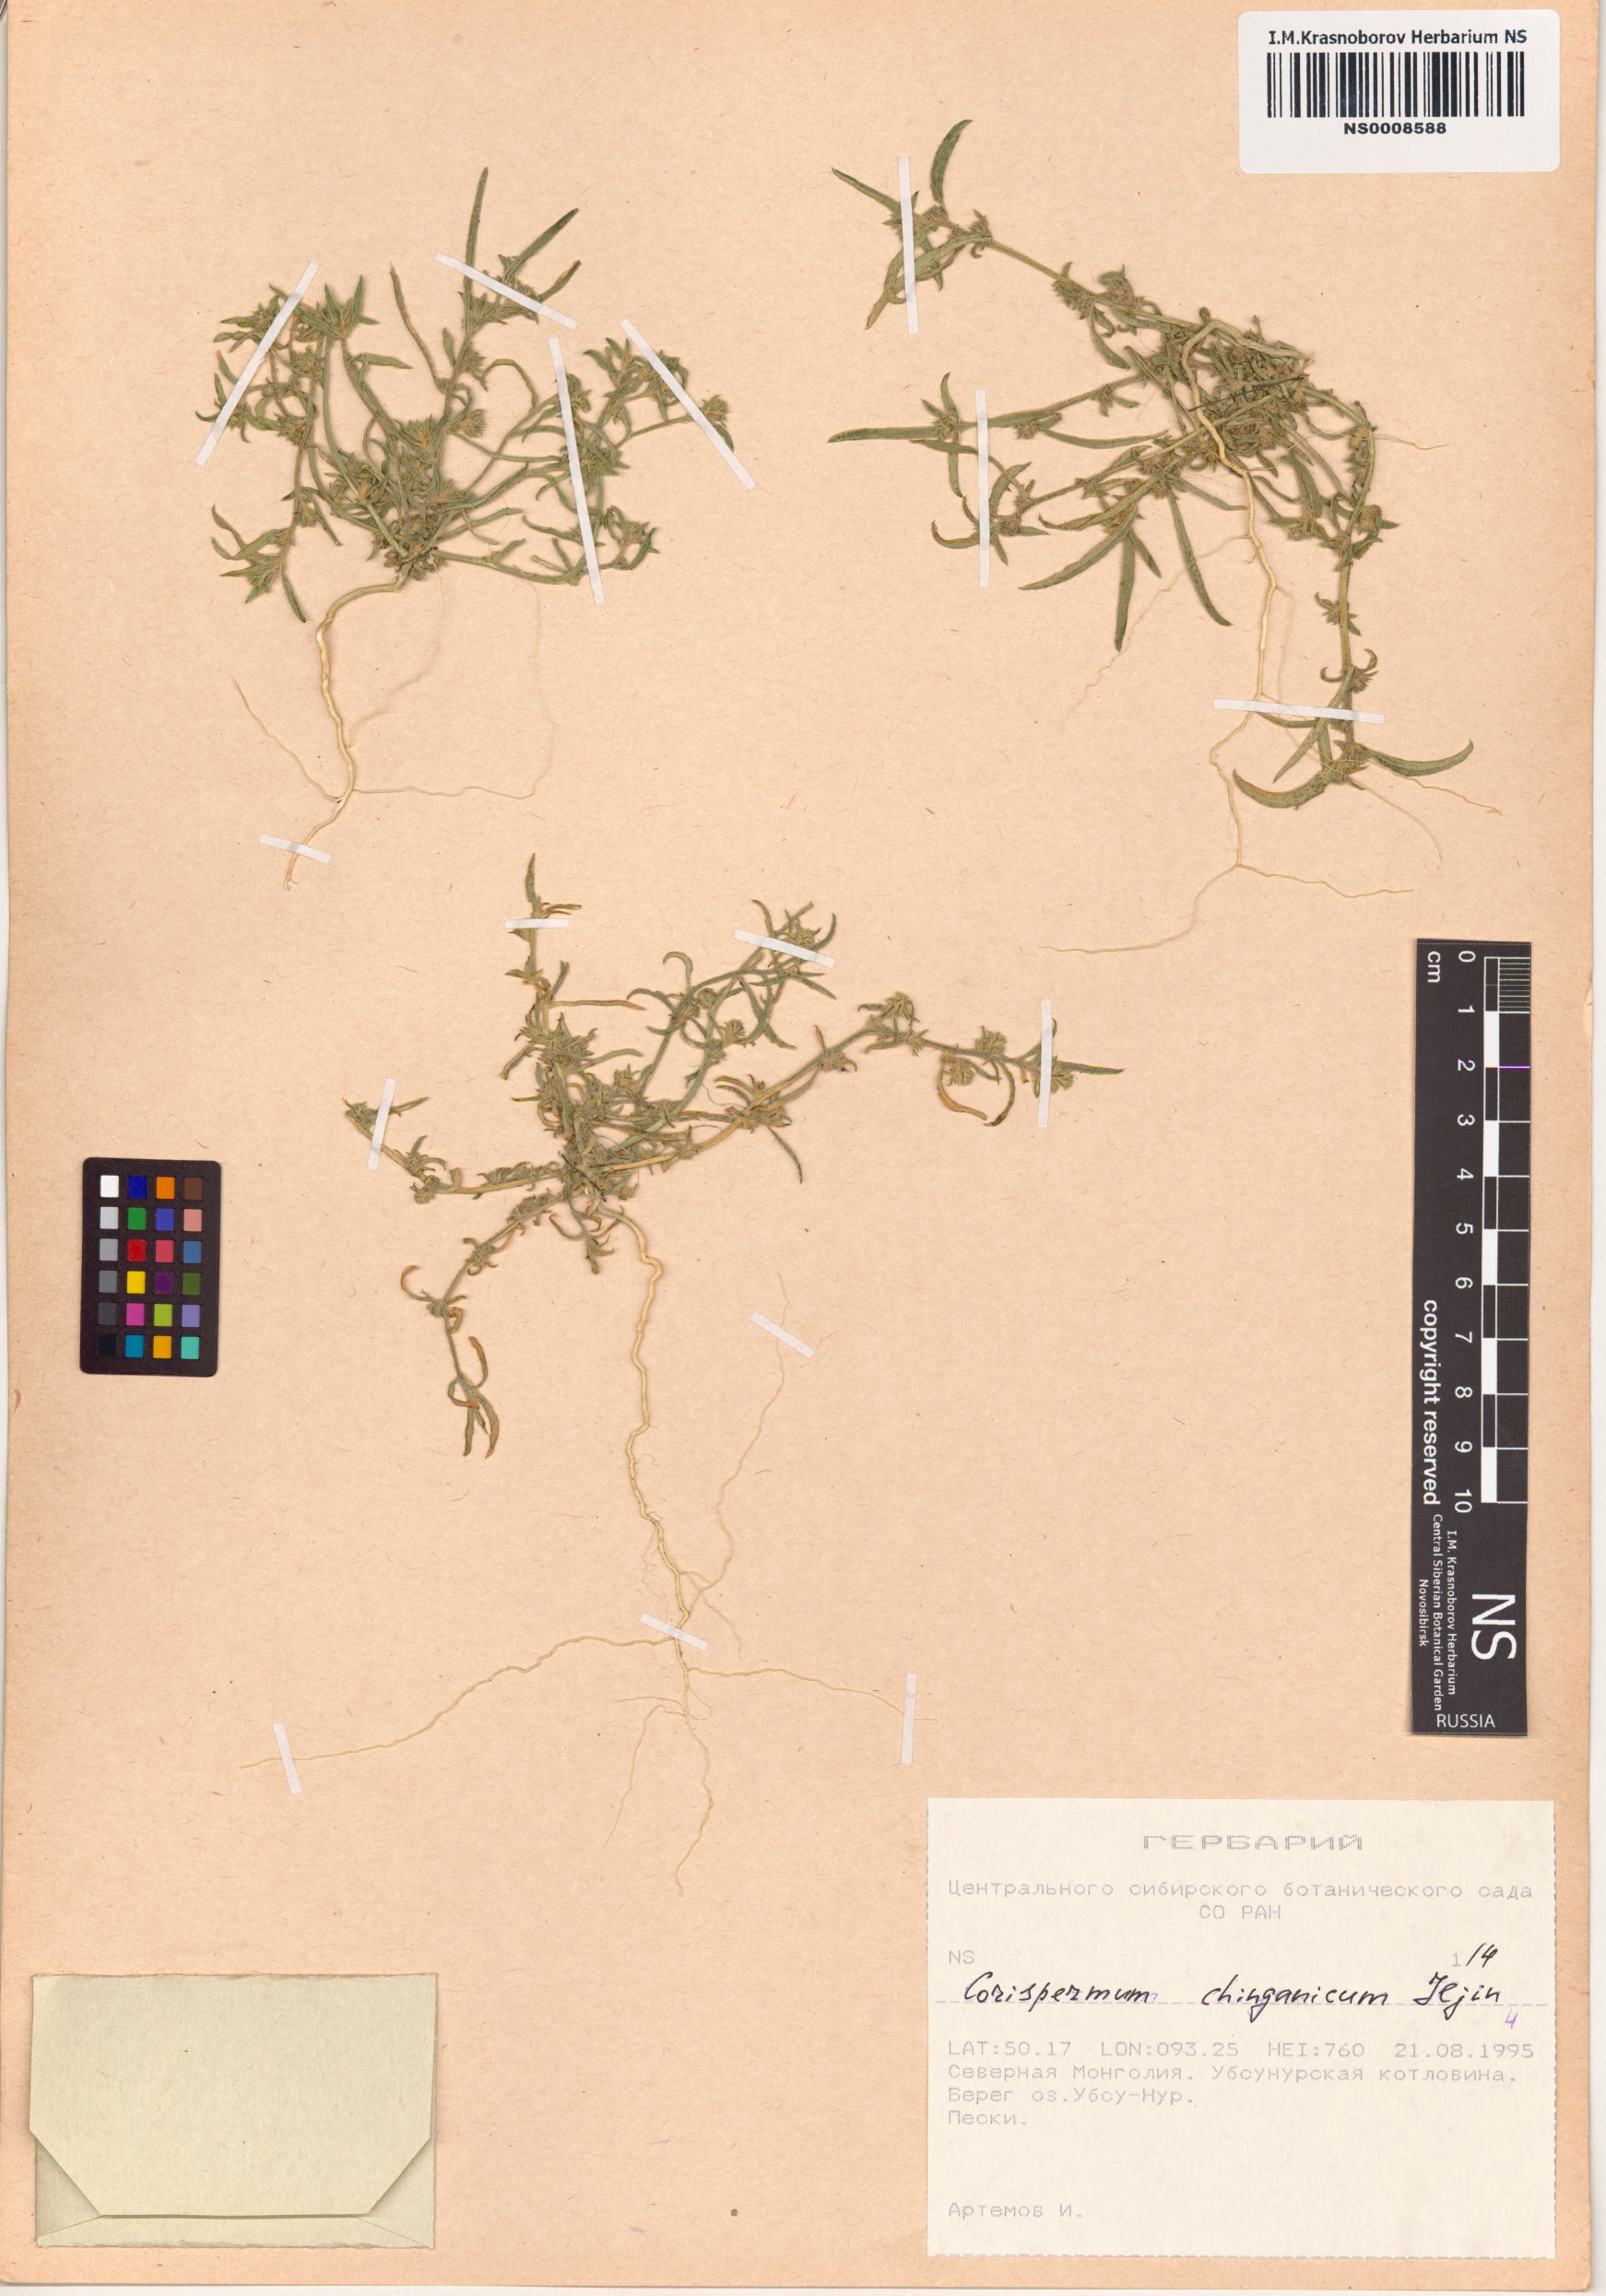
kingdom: Plantae
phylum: Tracheophyta
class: Magnoliopsida
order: Caryophyllales
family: Amaranthaceae
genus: Corispermum
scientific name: Corispermum chinganicum
